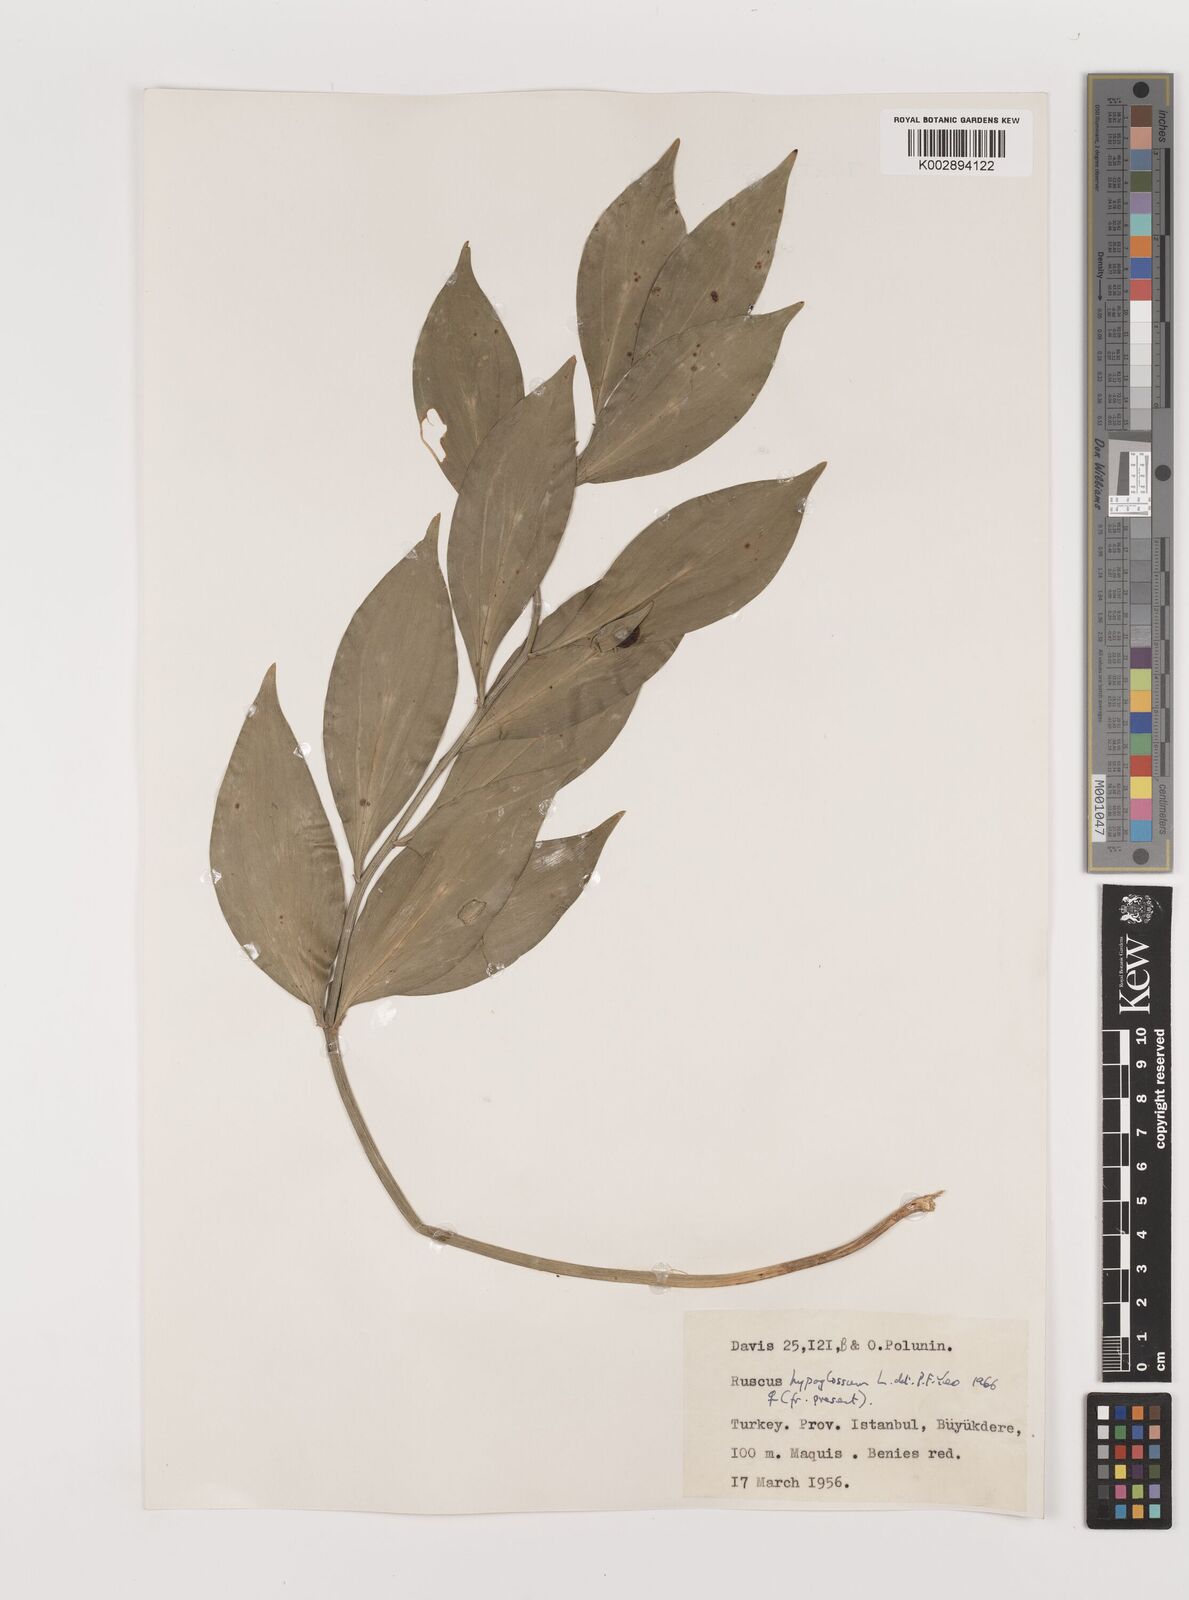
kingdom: Plantae
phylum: Tracheophyta
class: Liliopsida
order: Asparagales
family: Asparagaceae
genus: Ruscus
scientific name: Ruscus hypoglossum
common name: Spineless butcher's-broom
